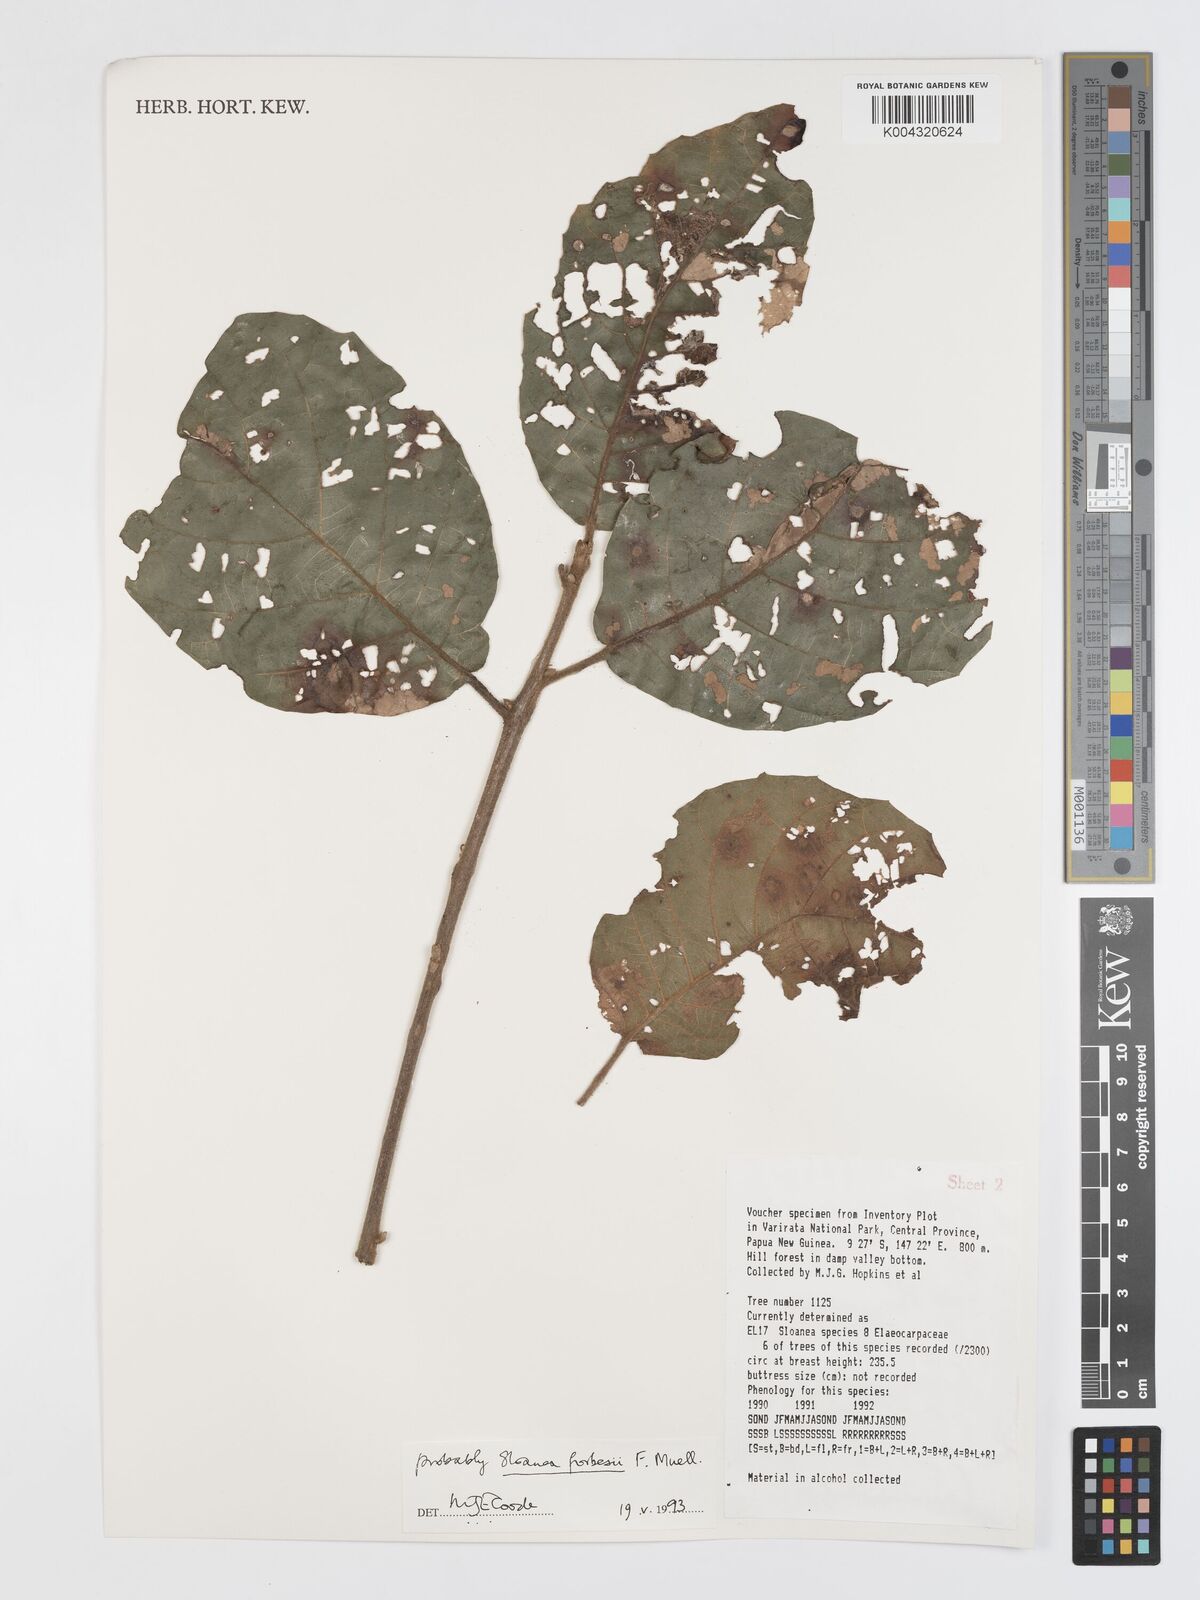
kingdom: Plantae
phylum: Tracheophyta
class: Magnoliopsida
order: Oxalidales
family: Elaeocarpaceae
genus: Sloanea
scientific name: Sloanea forbesii
